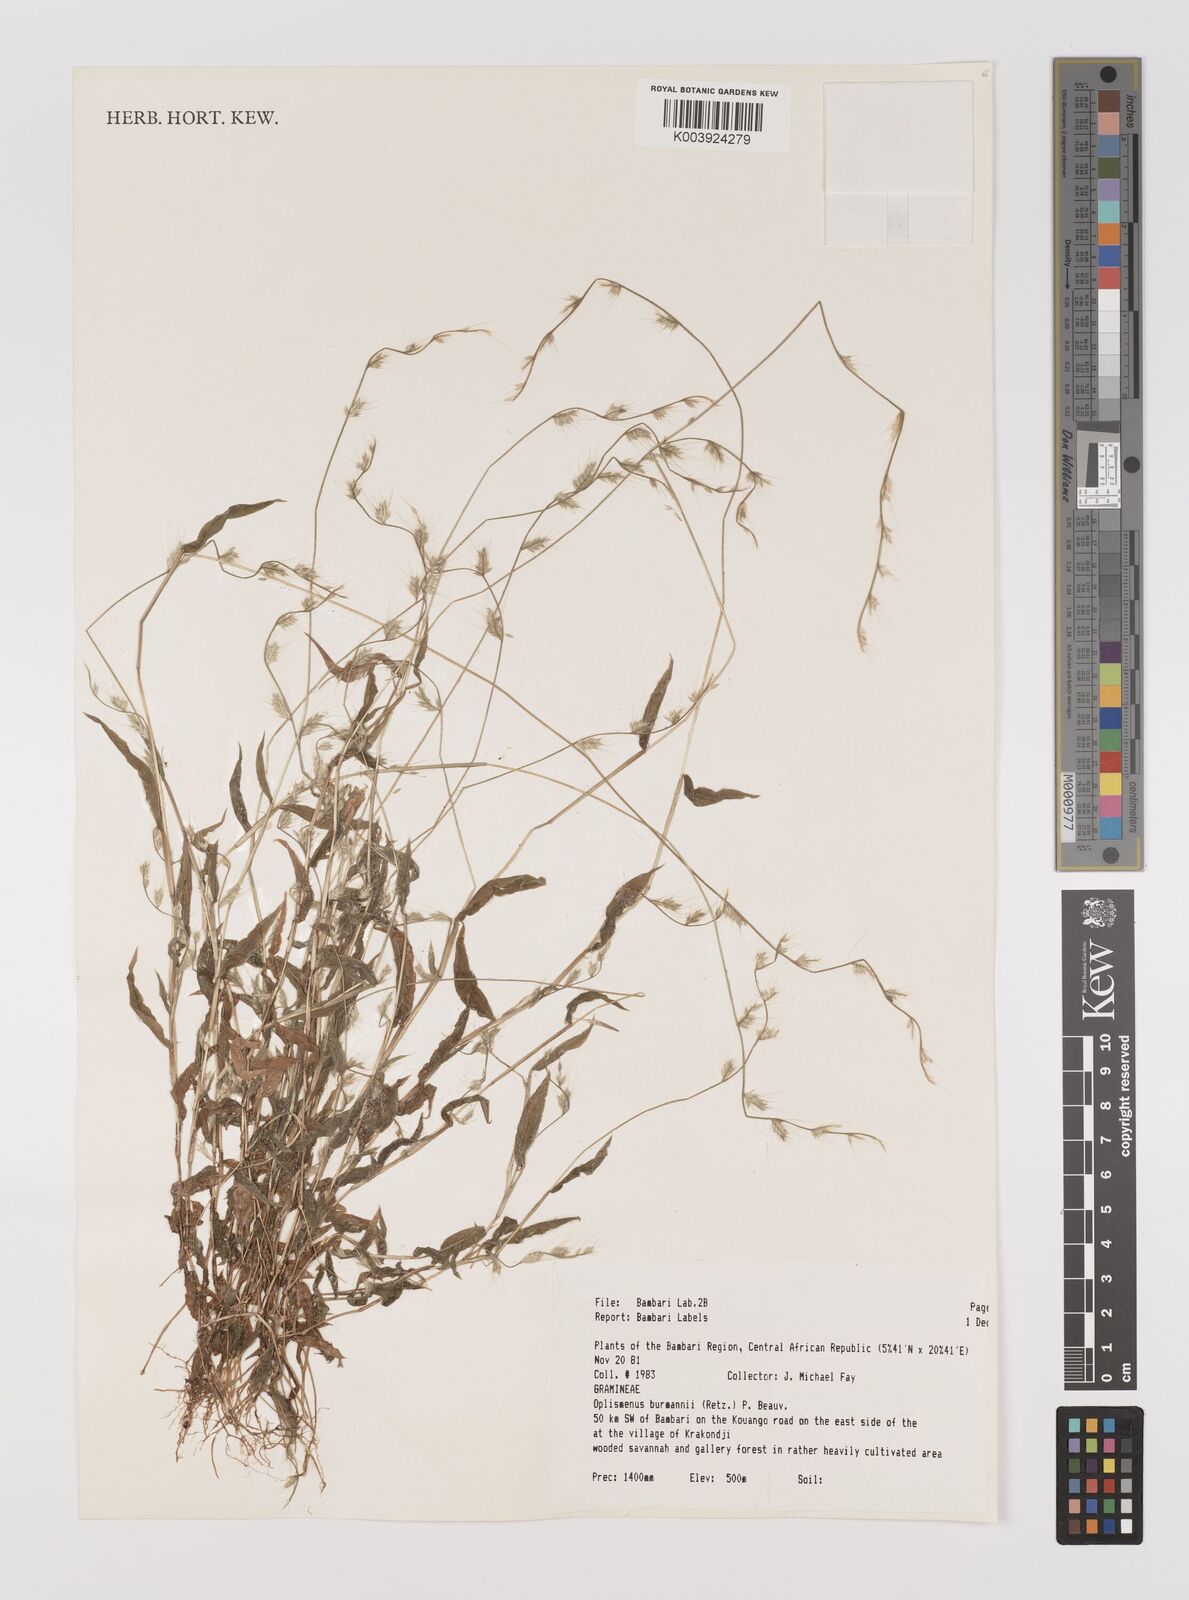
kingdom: Plantae
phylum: Tracheophyta
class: Liliopsida
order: Poales
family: Poaceae
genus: Oplismenus
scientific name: Oplismenus burmanni
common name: Burmann's basketgrass
